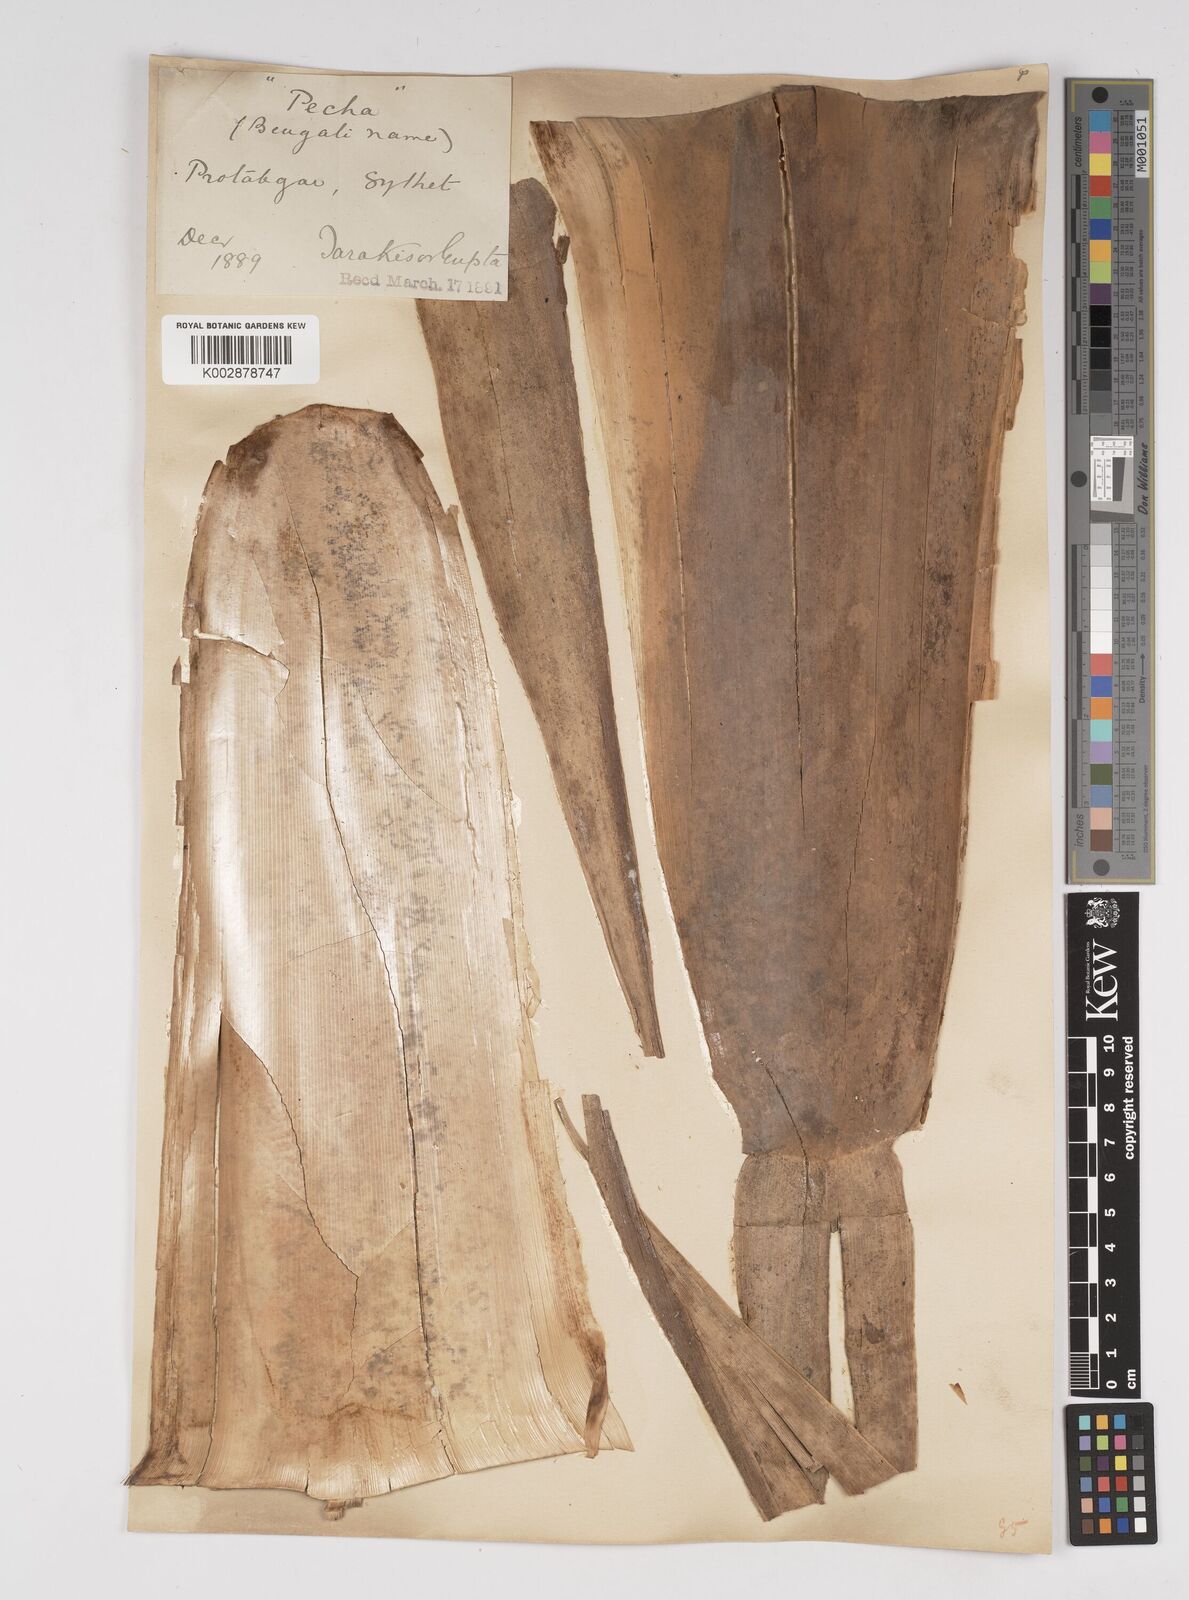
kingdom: Plantae
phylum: Tracheophyta
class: Liliopsida
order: Poales
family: Poaceae
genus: Dendrocalamus
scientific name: Dendrocalamus hamiltonii
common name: Tama bamboo
